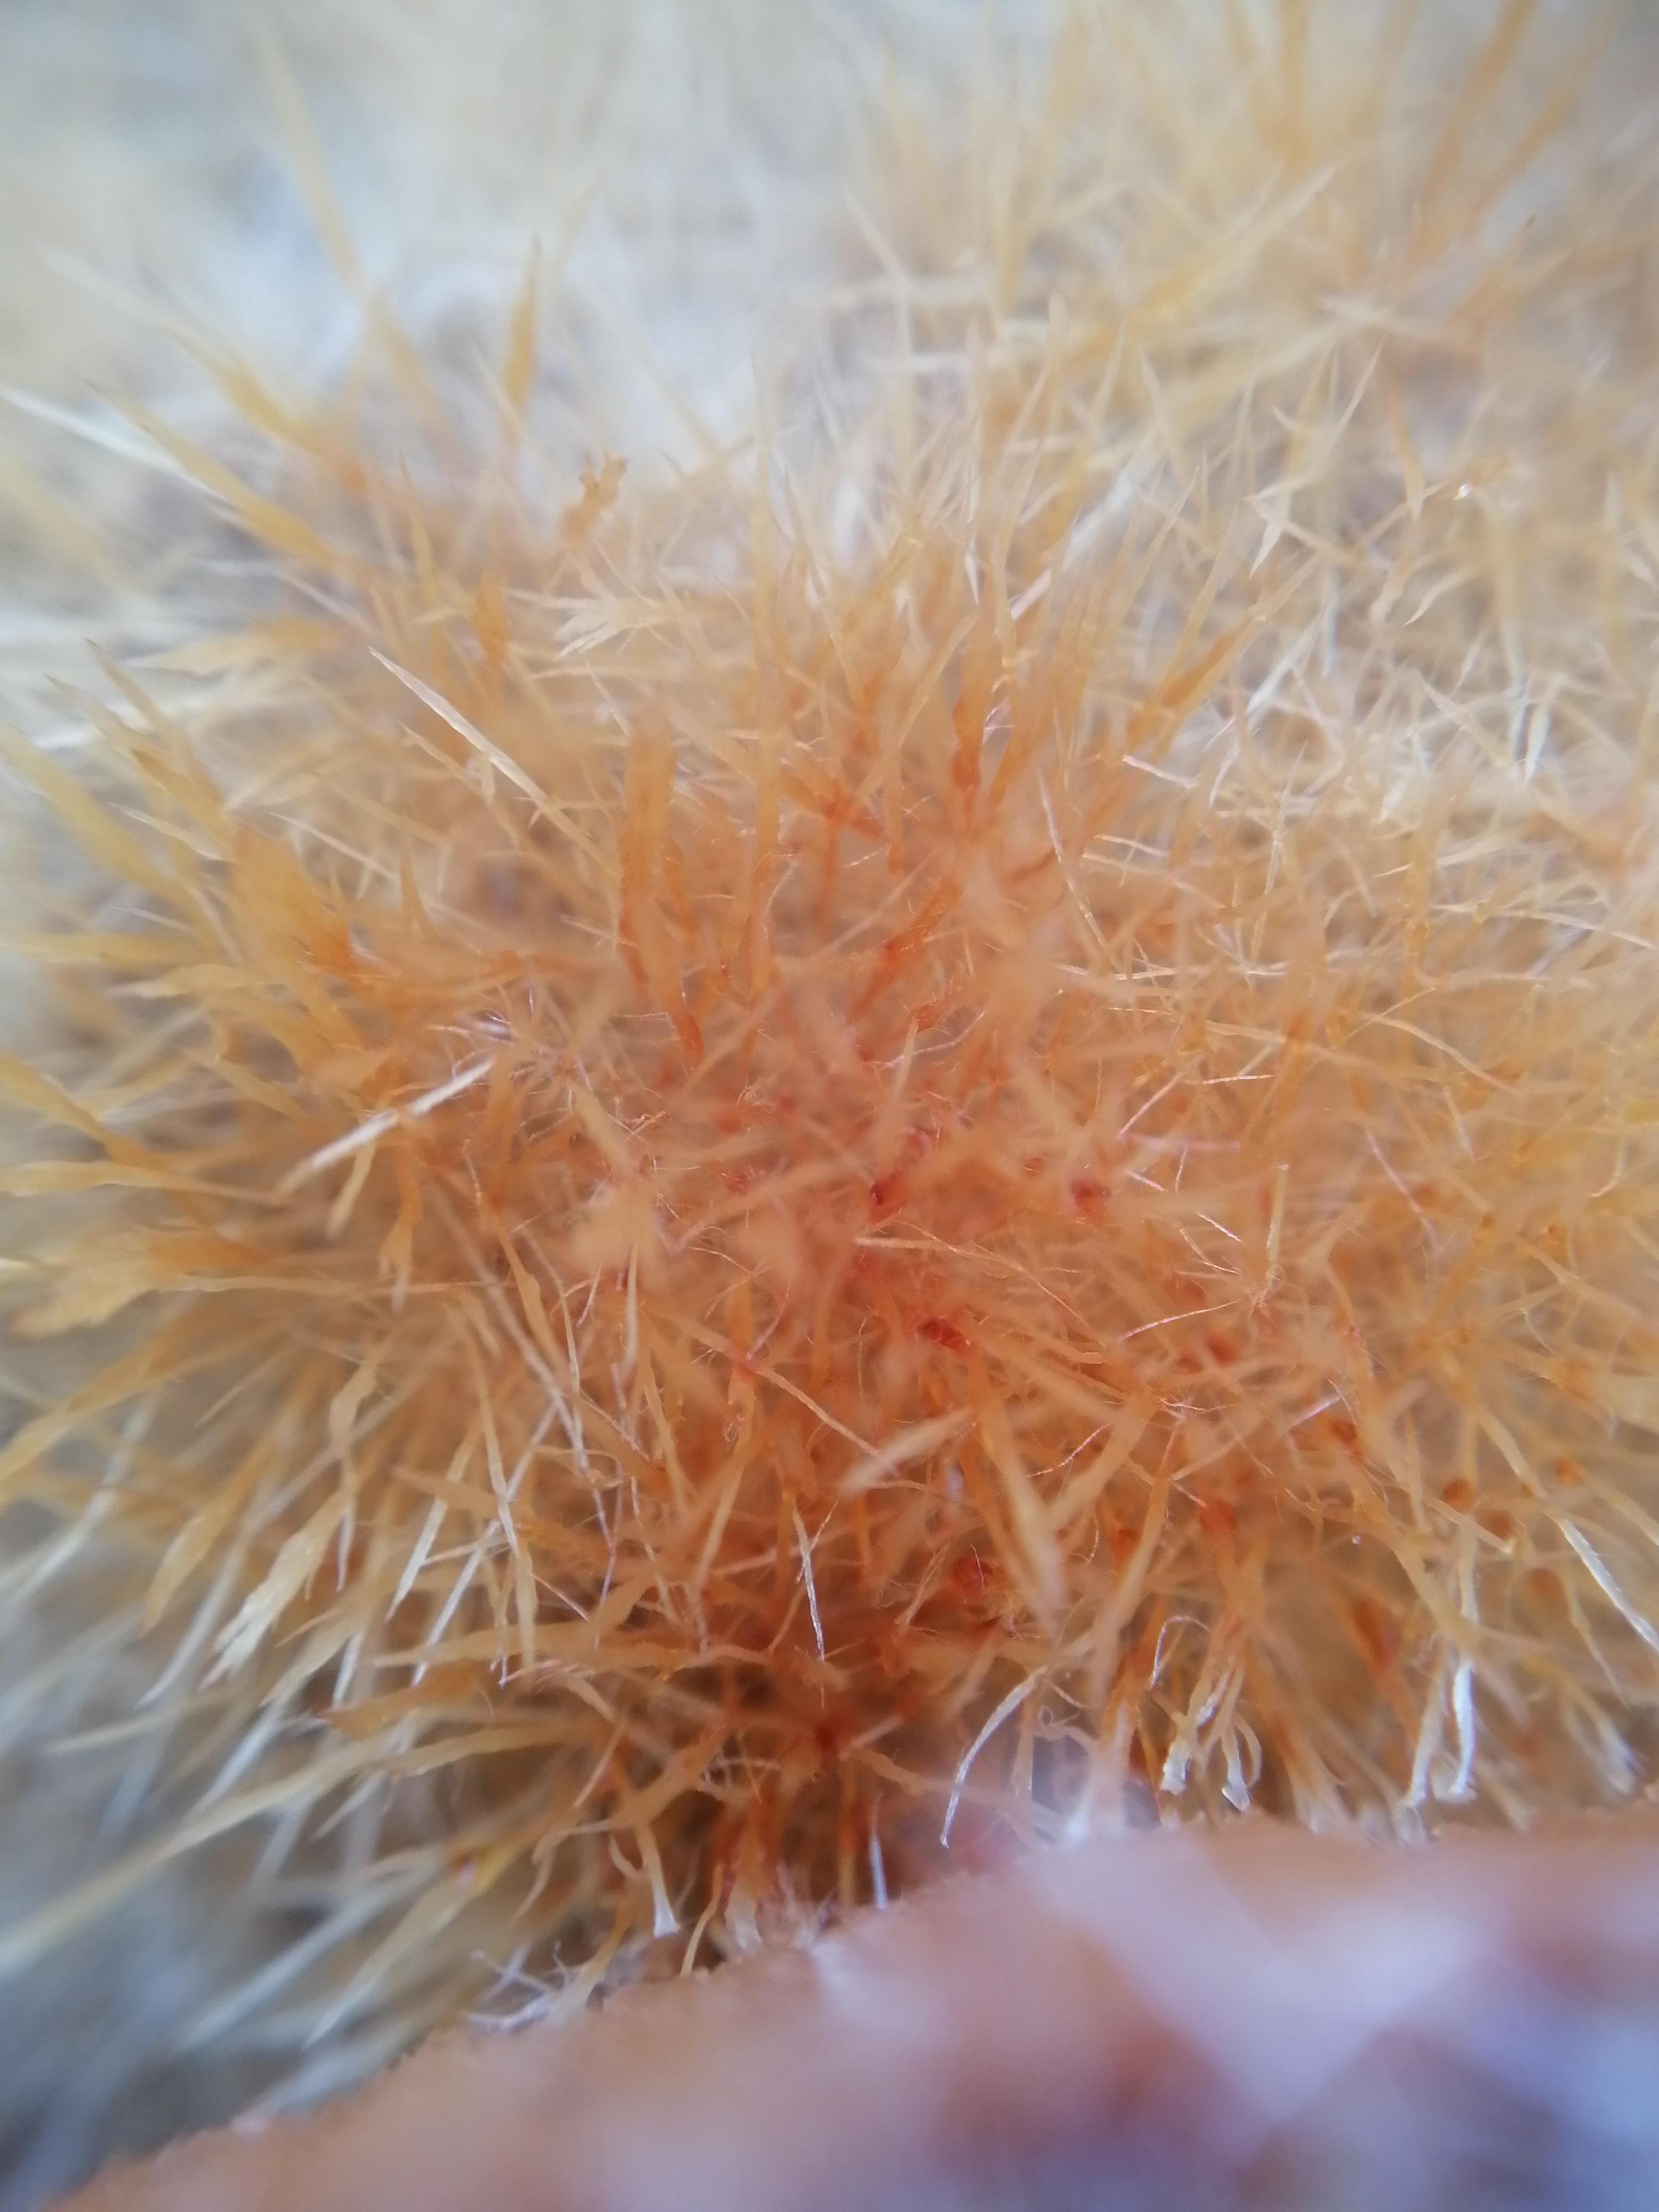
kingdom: Fungi
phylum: Basidiomycota
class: Agaricomycetes
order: Agaricales
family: Psathyrellaceae
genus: Ozonium
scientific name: Ozonium
